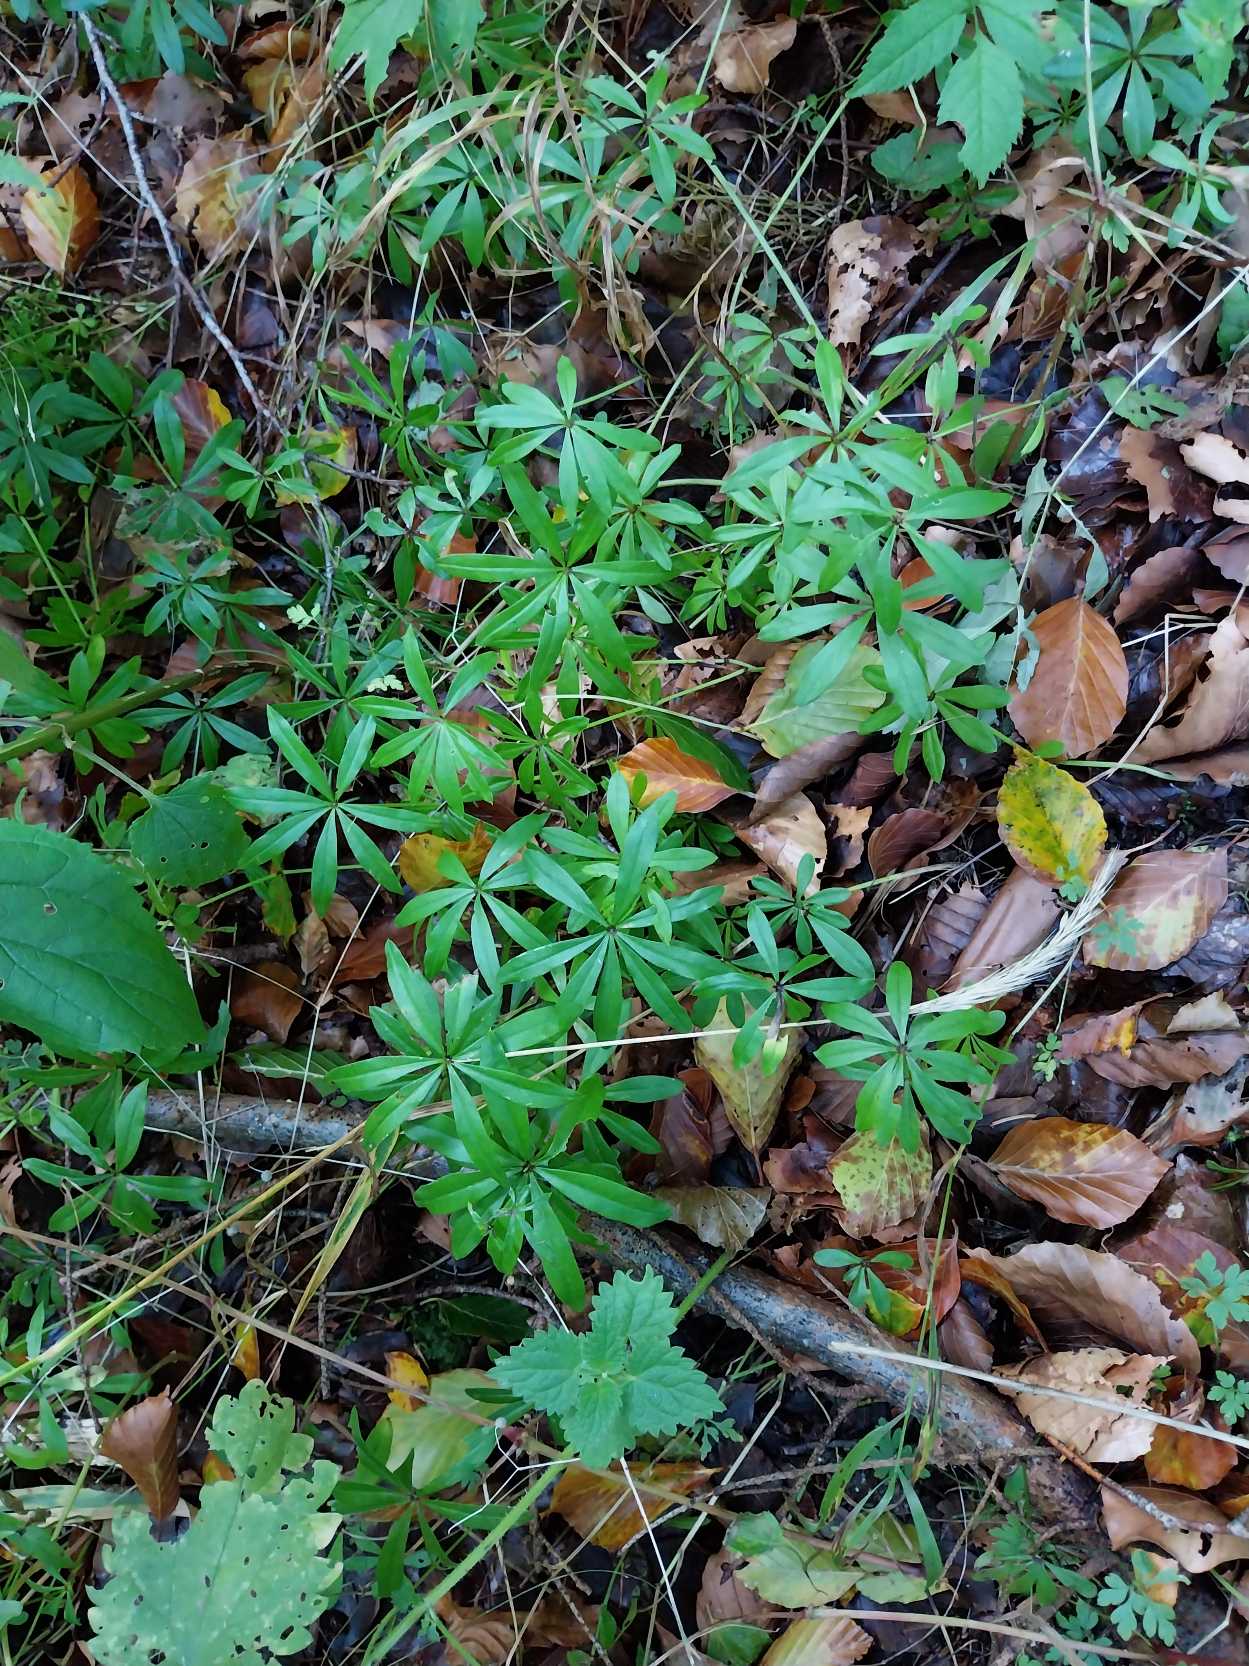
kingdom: Plantae
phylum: Tracheophyta
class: Magnoliopsida
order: Gentianales
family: Rubiaceae
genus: Galium
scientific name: Galium odoratum
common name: Skovmærke
